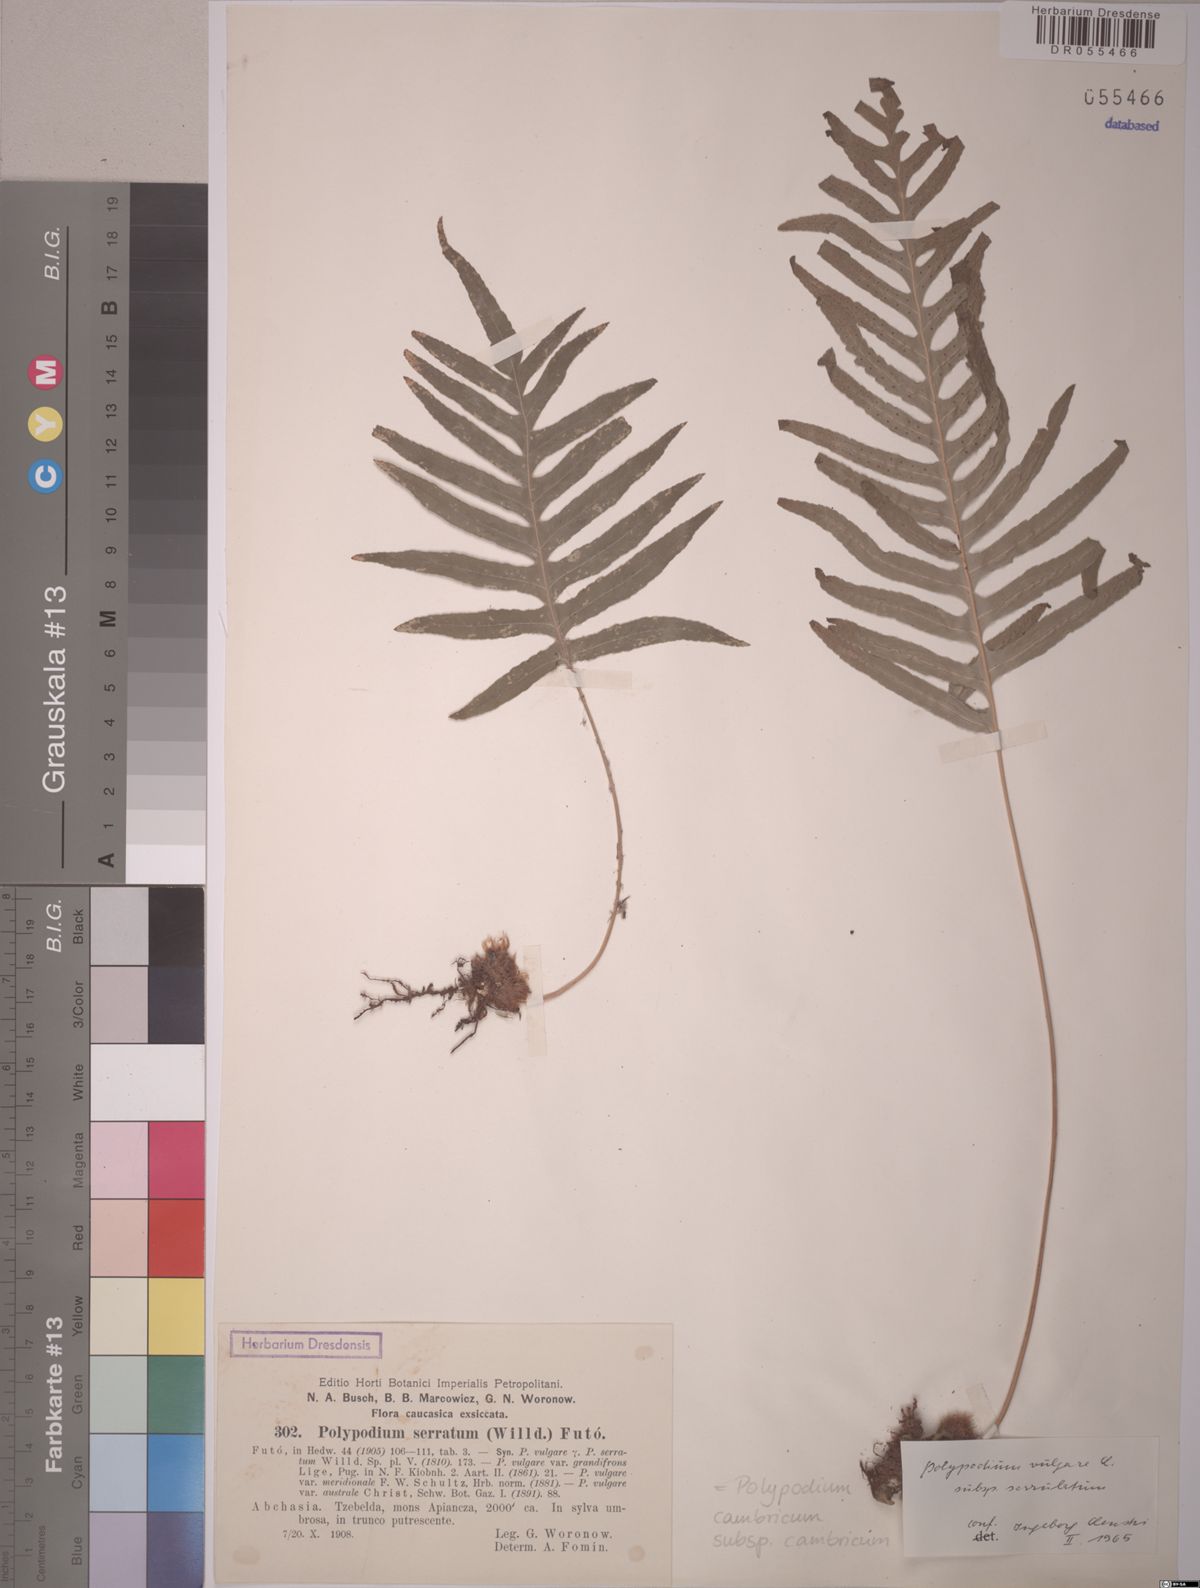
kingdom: Plantae
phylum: Tracheophyta
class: Polypodiopsida
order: Polypodiales
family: Polypodiaceae
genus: Polypodium
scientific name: Polypodium cambricum
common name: Southern polypody
